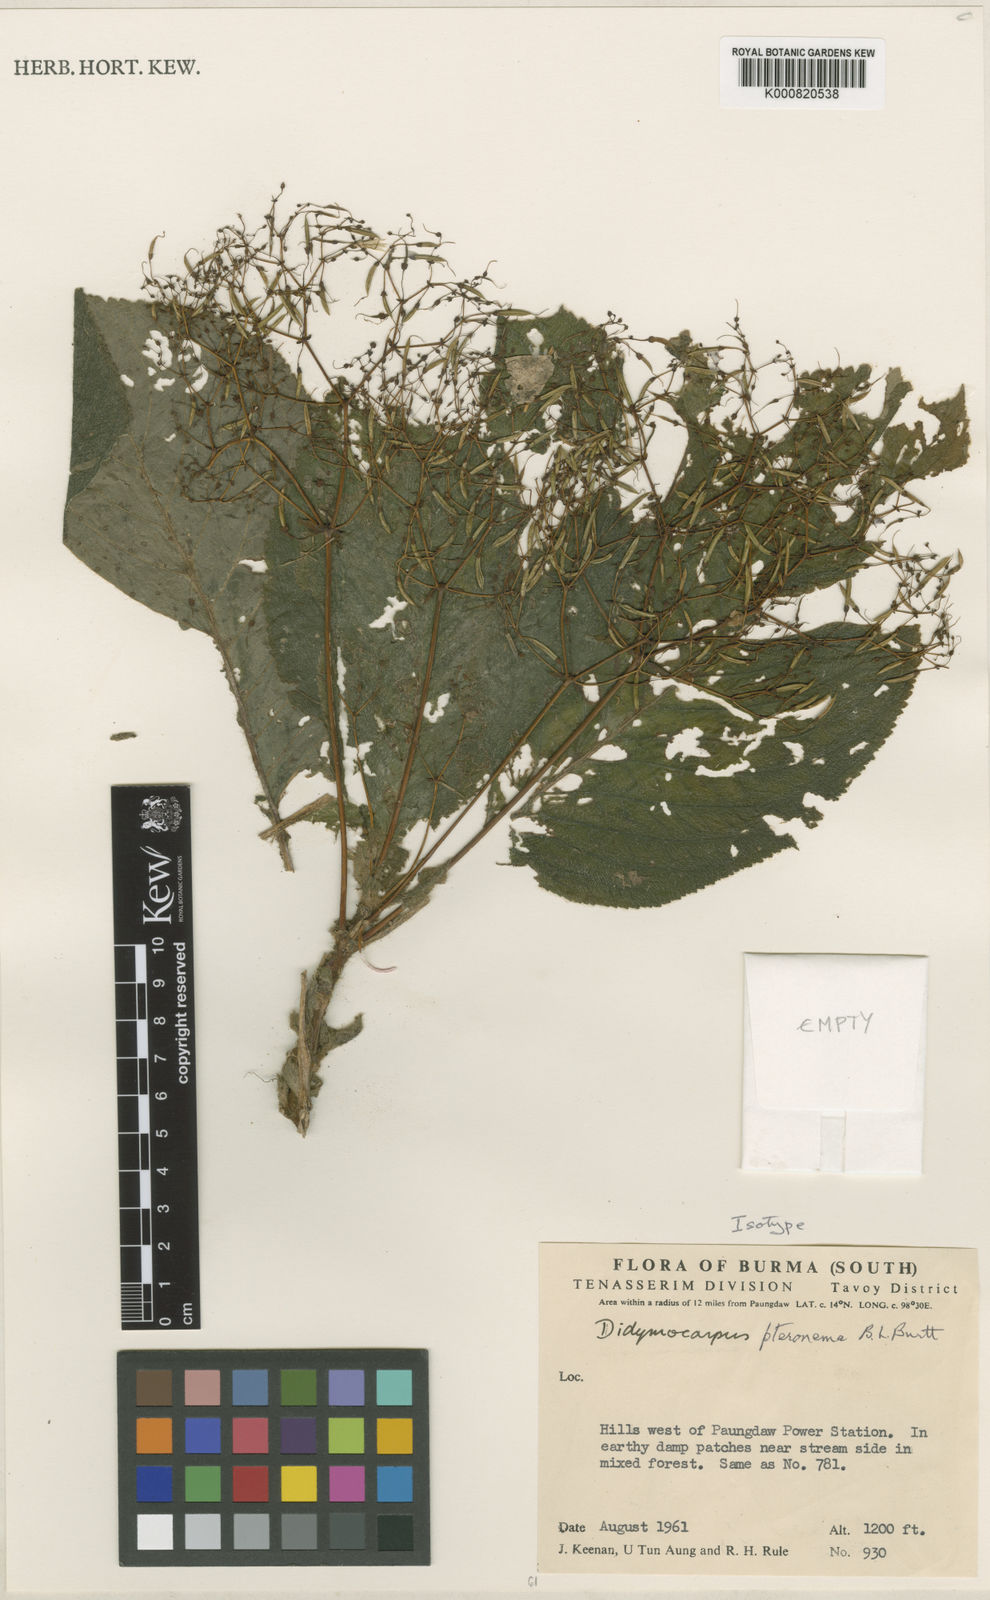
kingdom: Plantae
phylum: Tracheophyta
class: Magnoliopsida
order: Lamiales
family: Gesneriaceae
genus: Didymocarpus
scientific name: Didymocarpus pteronema
